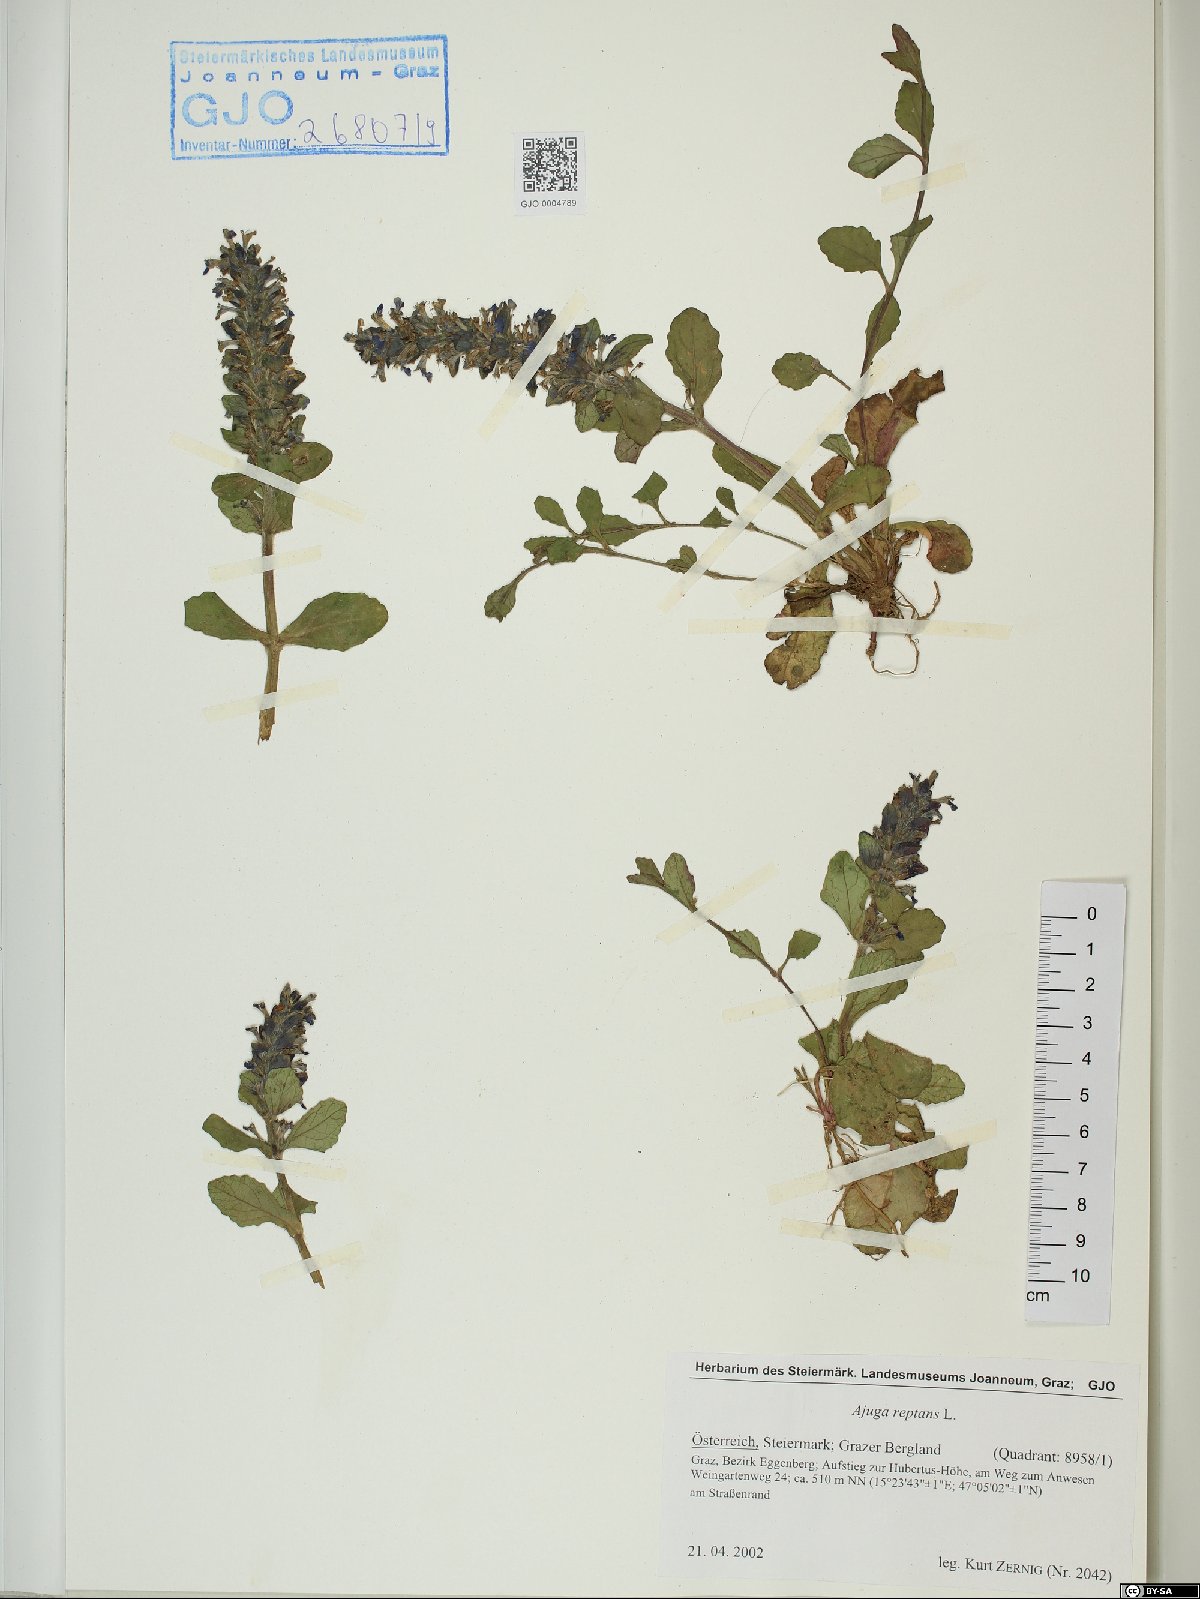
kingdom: Plantae
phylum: Tracheophyta
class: Magnoliopsida
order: Lamiales
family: Lamiaceae
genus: Ajuga
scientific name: Ajuga reptans
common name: Bugle
